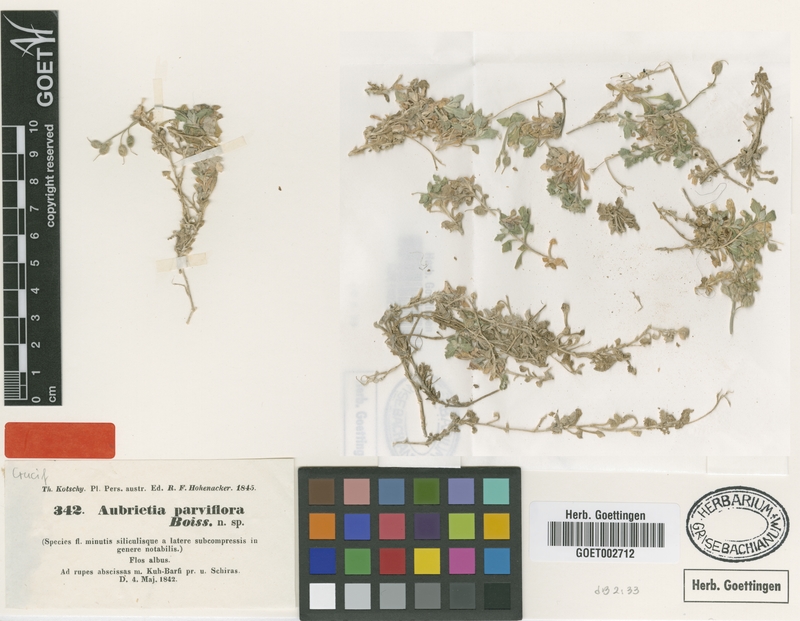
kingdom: Plantae
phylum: Tracheophyta
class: Magnoliopsida
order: Brassicales
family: Brassicaceae
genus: Aubrieta
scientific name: Aubrieta parviflora
